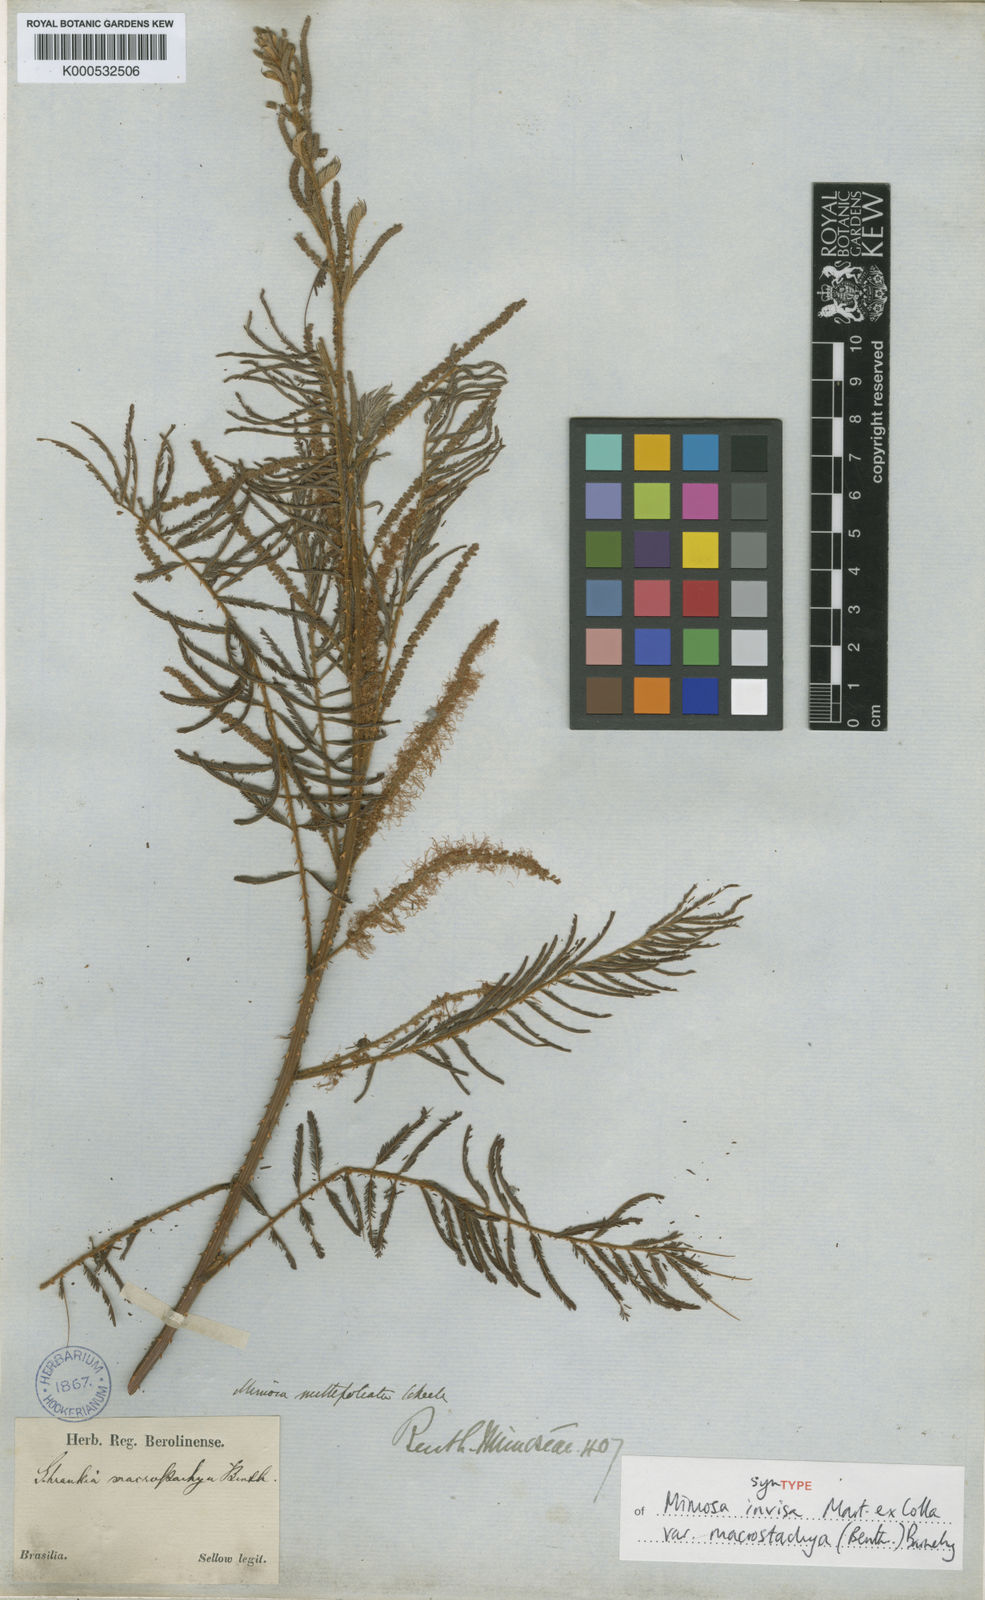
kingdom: Plantae
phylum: Tracheophyta
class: Magnoliopsida
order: Fabales
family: Fabaceae
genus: Mimosa
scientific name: Mimosa invisa
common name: Creeping sensitive-plant
